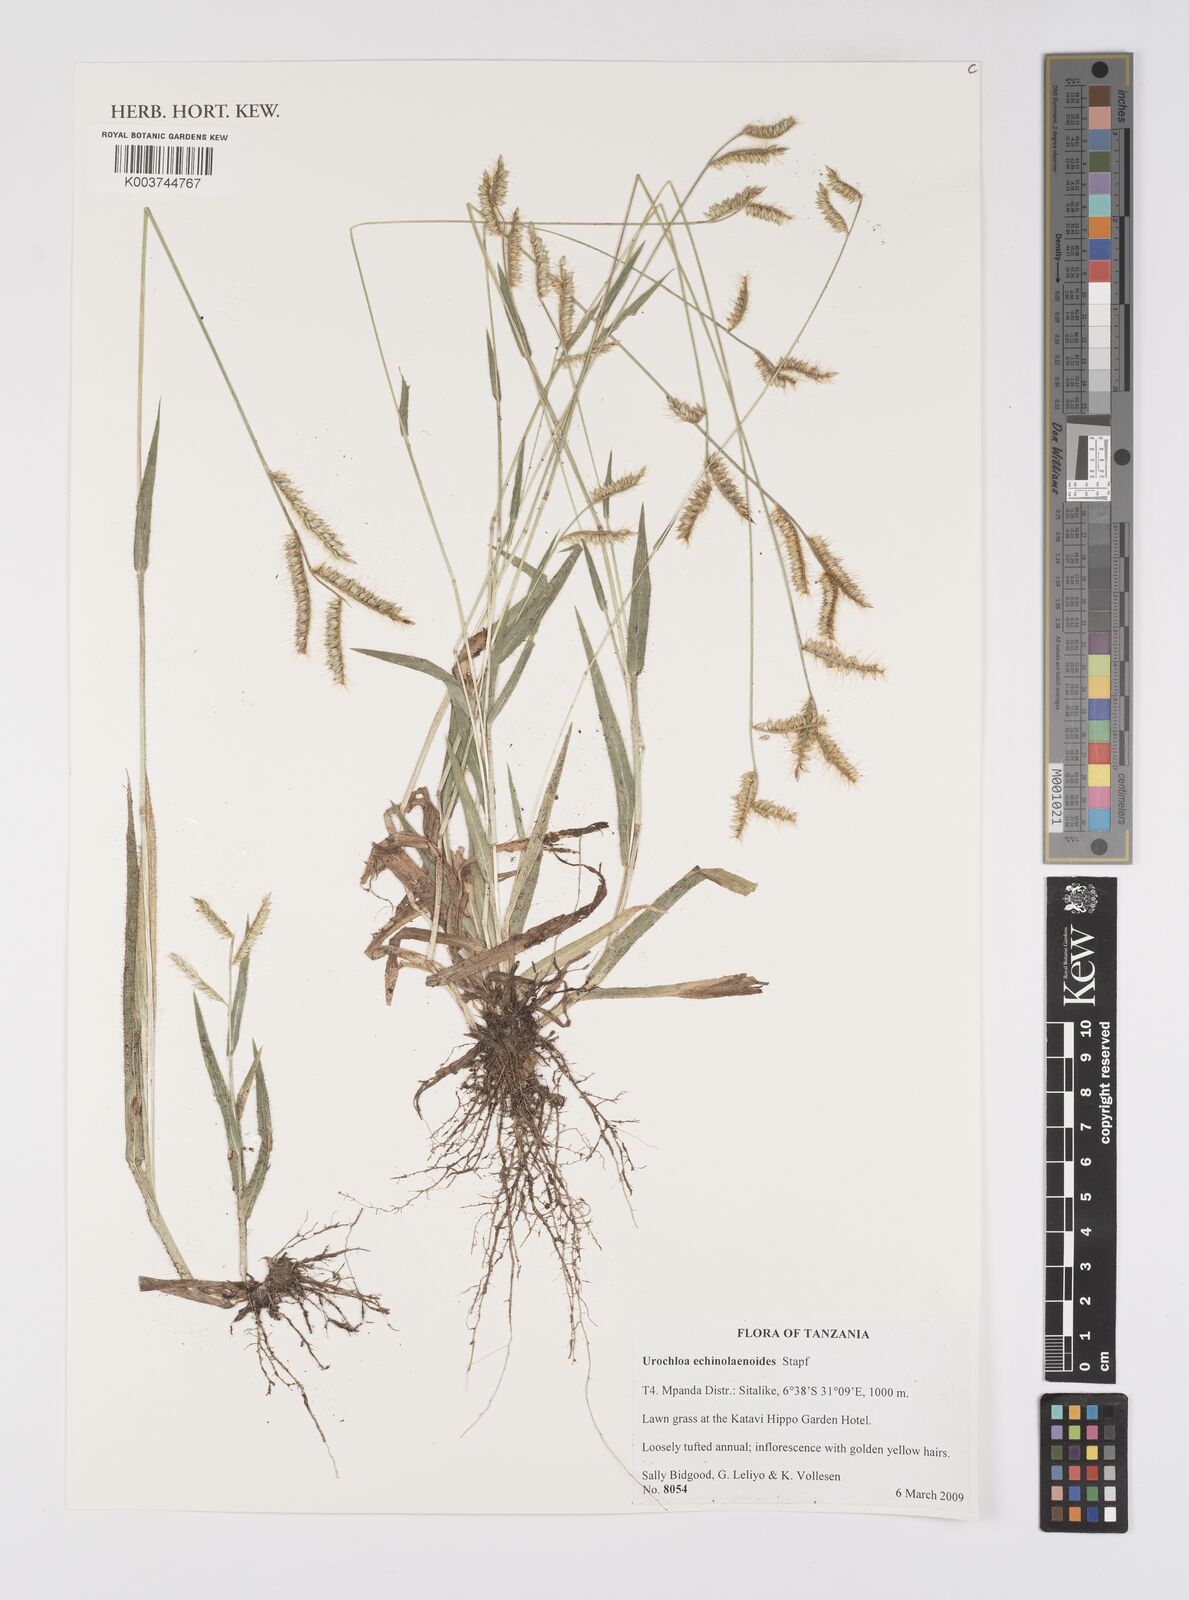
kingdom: Plantae
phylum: Tracheophyta
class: Liliopsida
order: Poales
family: Poaceae
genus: Urochloa
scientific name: Urochloa echinolaenoides
